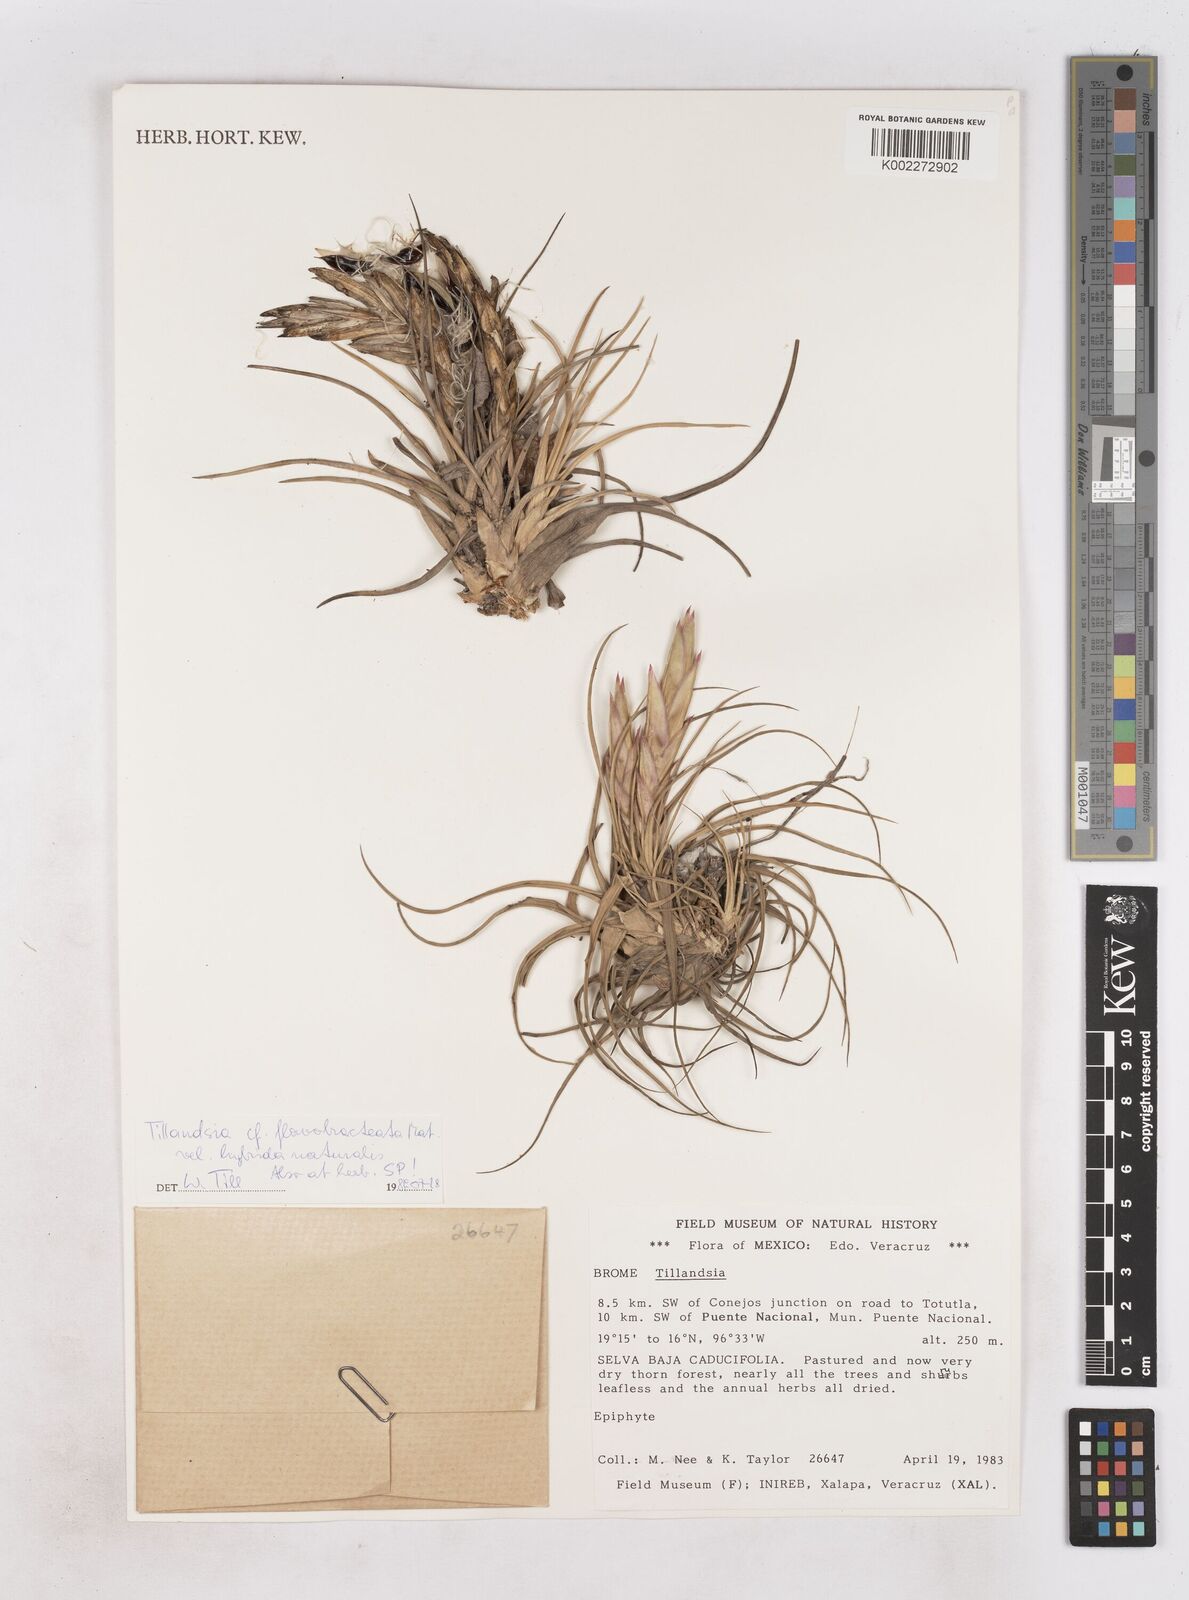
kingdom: Plantae
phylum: Tracheophyta
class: Liliopsida
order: Poales
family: Bromeliaceae
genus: Tillandsia
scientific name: Tillandsia flavobracteata
